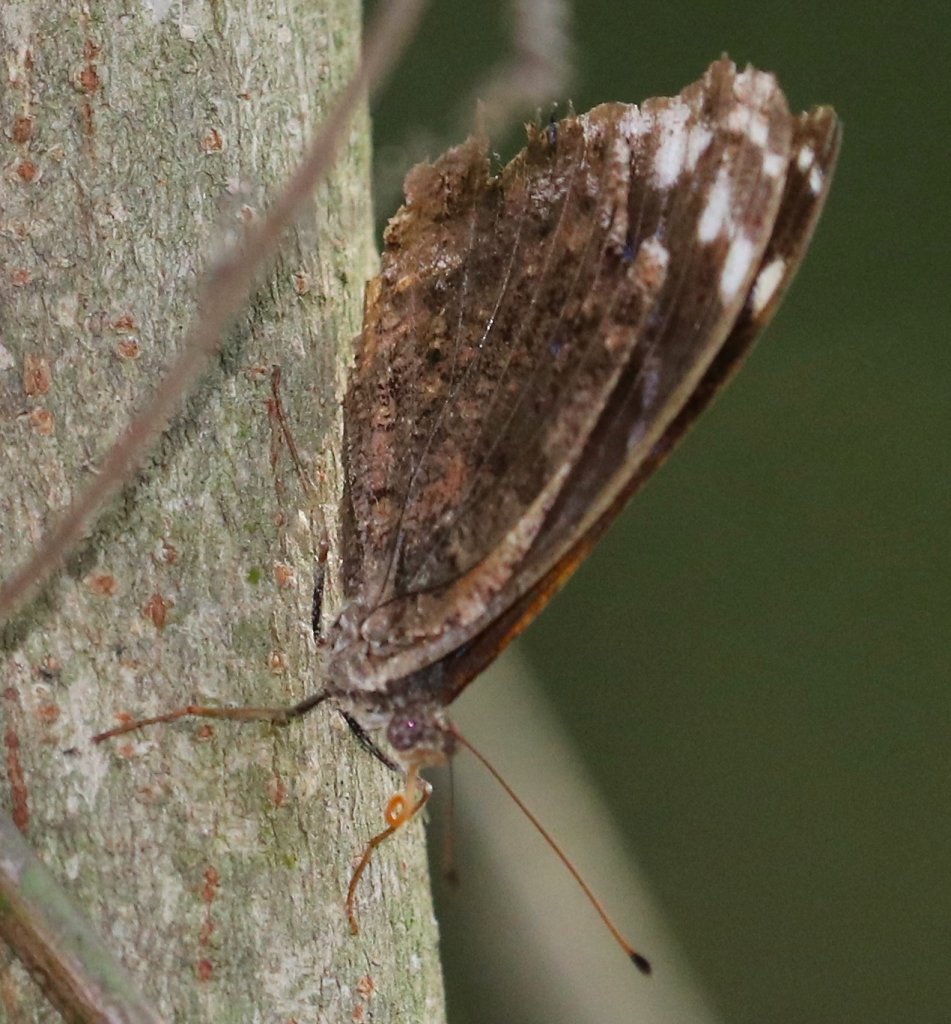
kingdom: Animalia
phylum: Arthropoda
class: Insecta
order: Lepidoptera
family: Nymphalidae
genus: Myscelia
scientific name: Myscelia ethusa
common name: Mexican Bluewing
